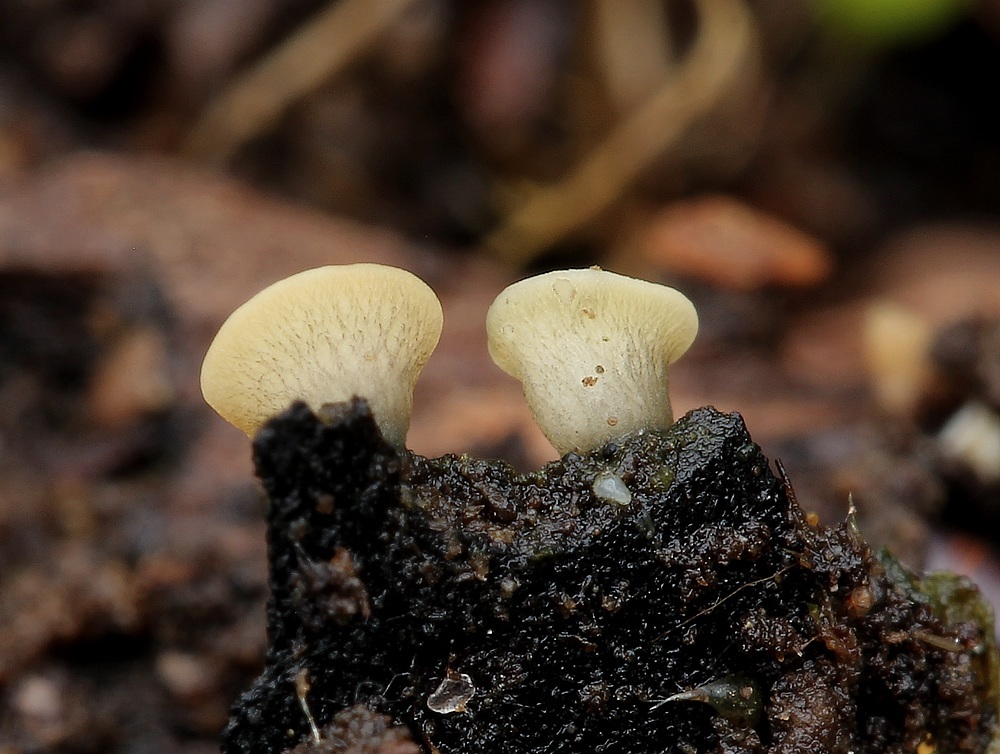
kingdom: Fungi
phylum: Ascomycota
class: Leotiomycetes
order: Helotiales
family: Helotiaceae
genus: Hymenoscyphus
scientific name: Hymenoscyphus
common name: stilkskive
